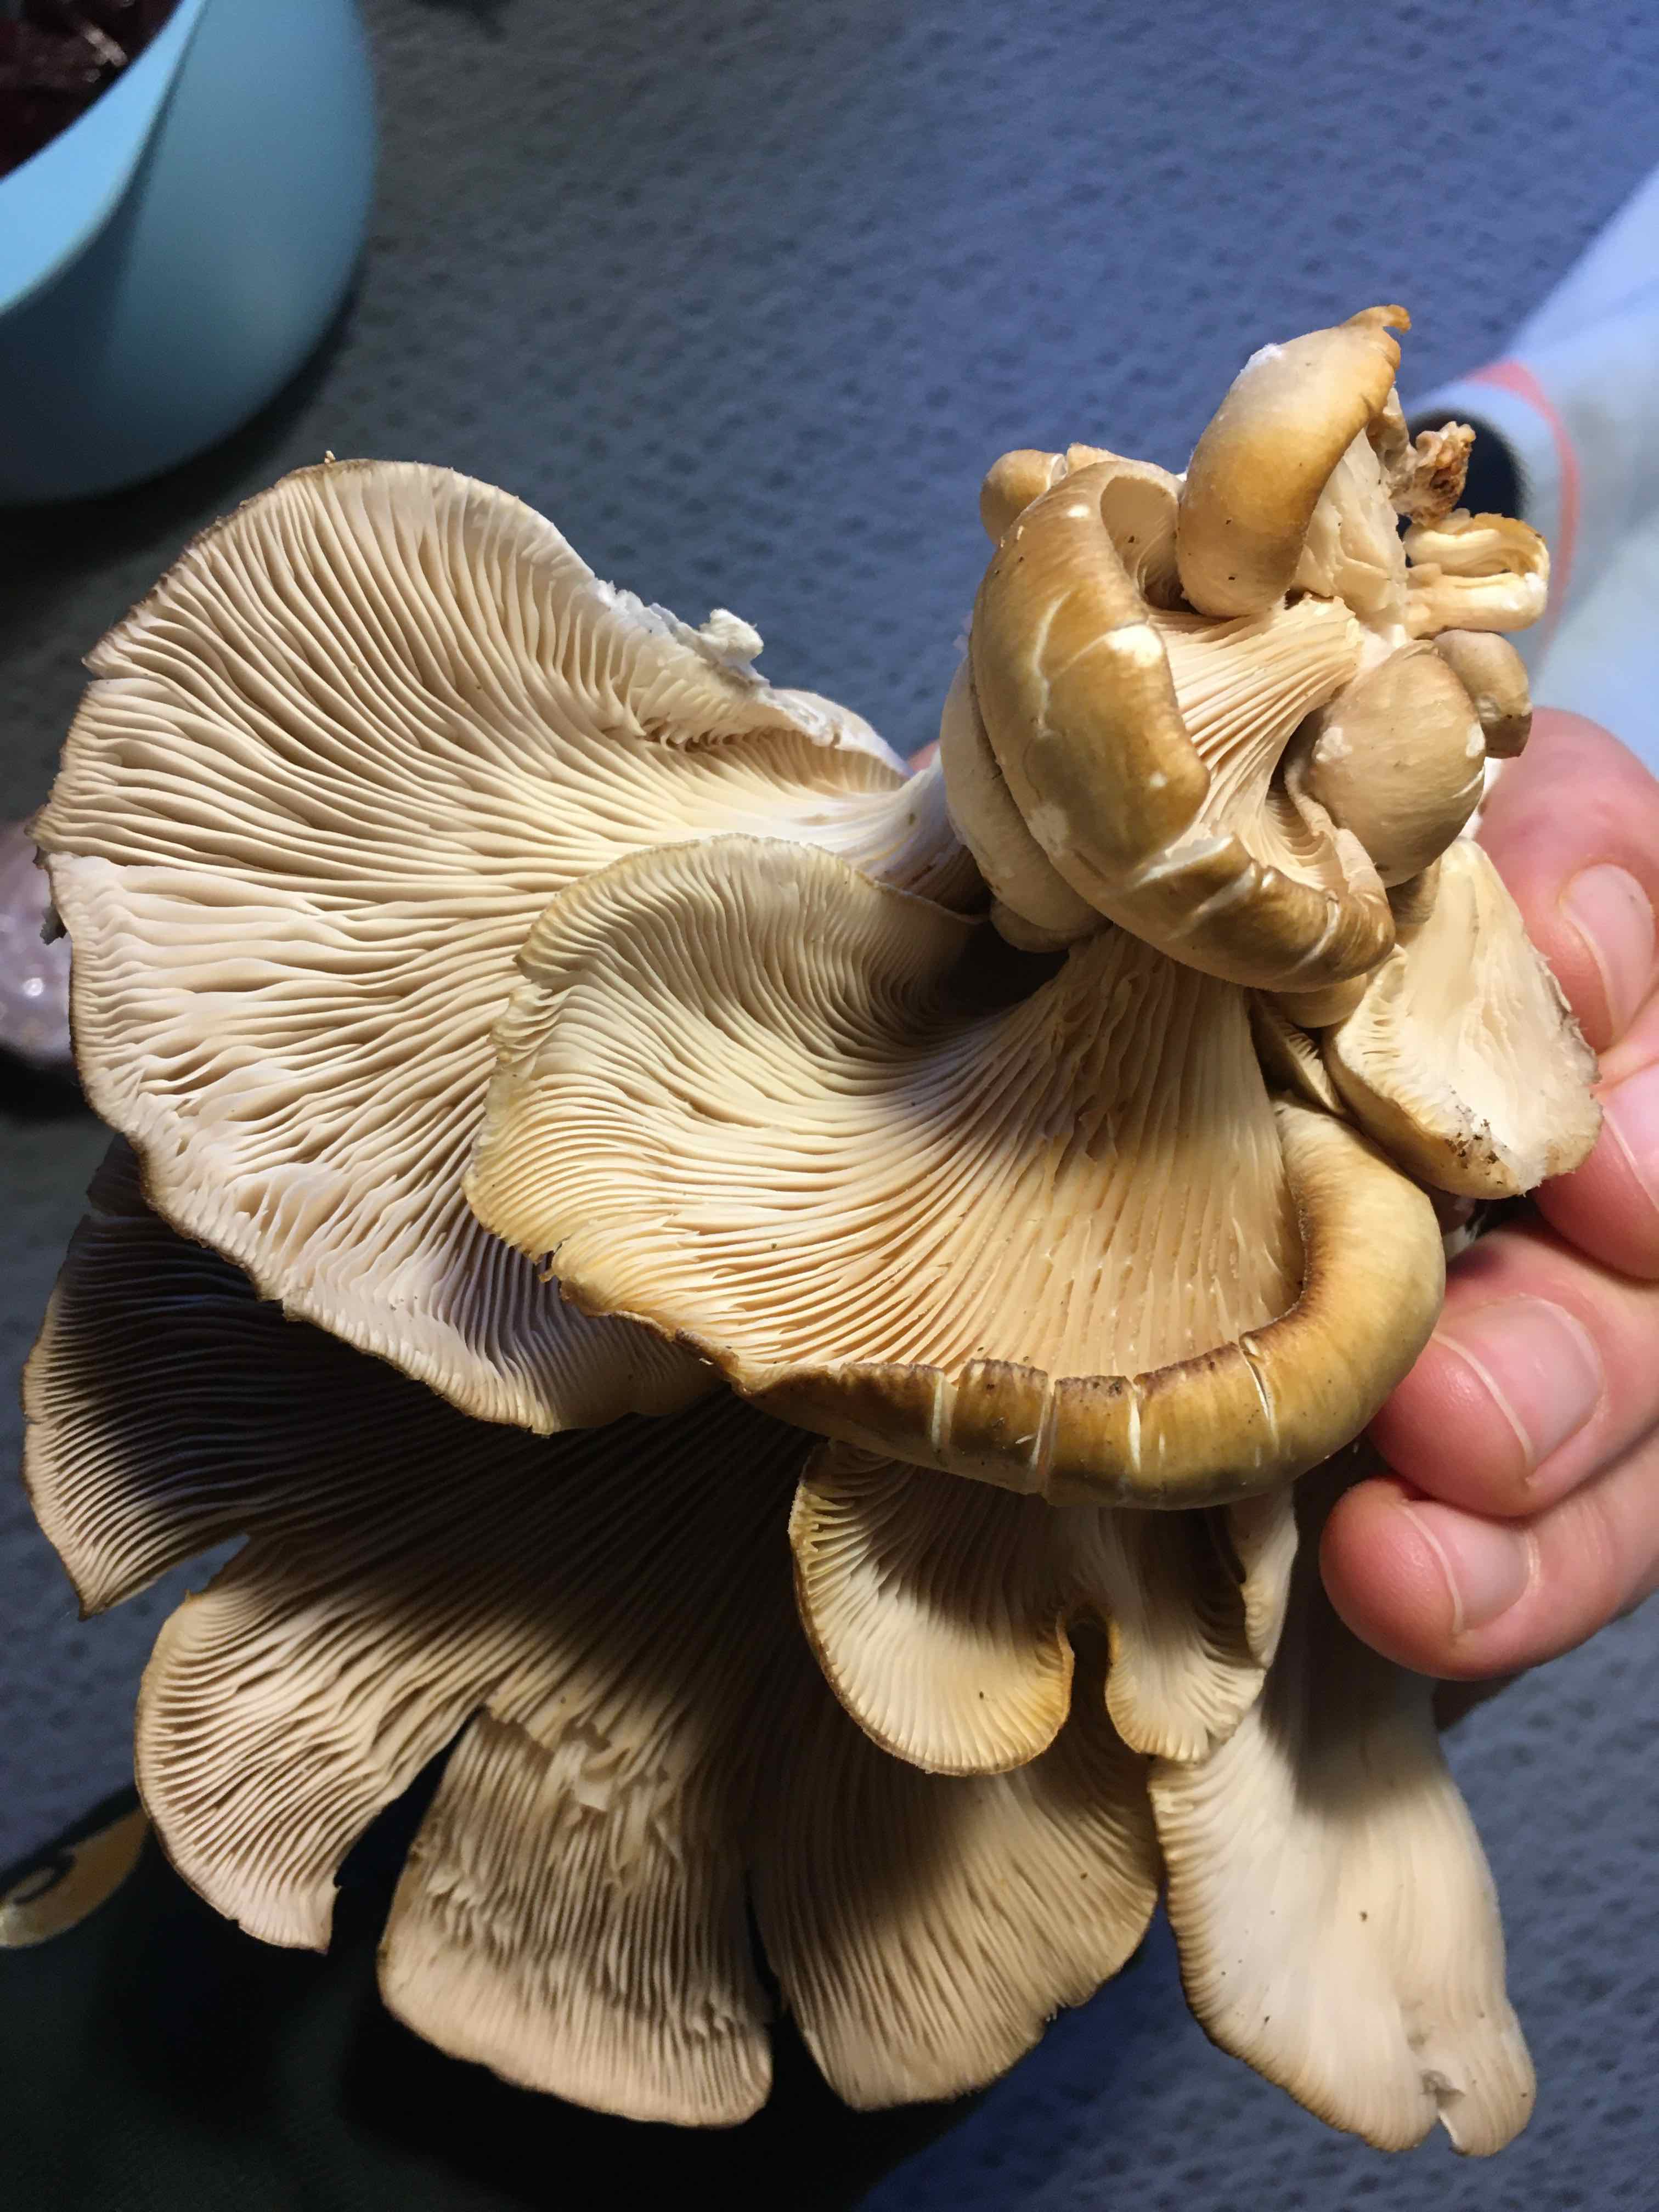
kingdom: Fungi
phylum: Basidiomycota
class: Agaricomycetes
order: Agaricales
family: Pleurotaceae
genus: Pleurotus
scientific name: Pleurotus ostreatus
